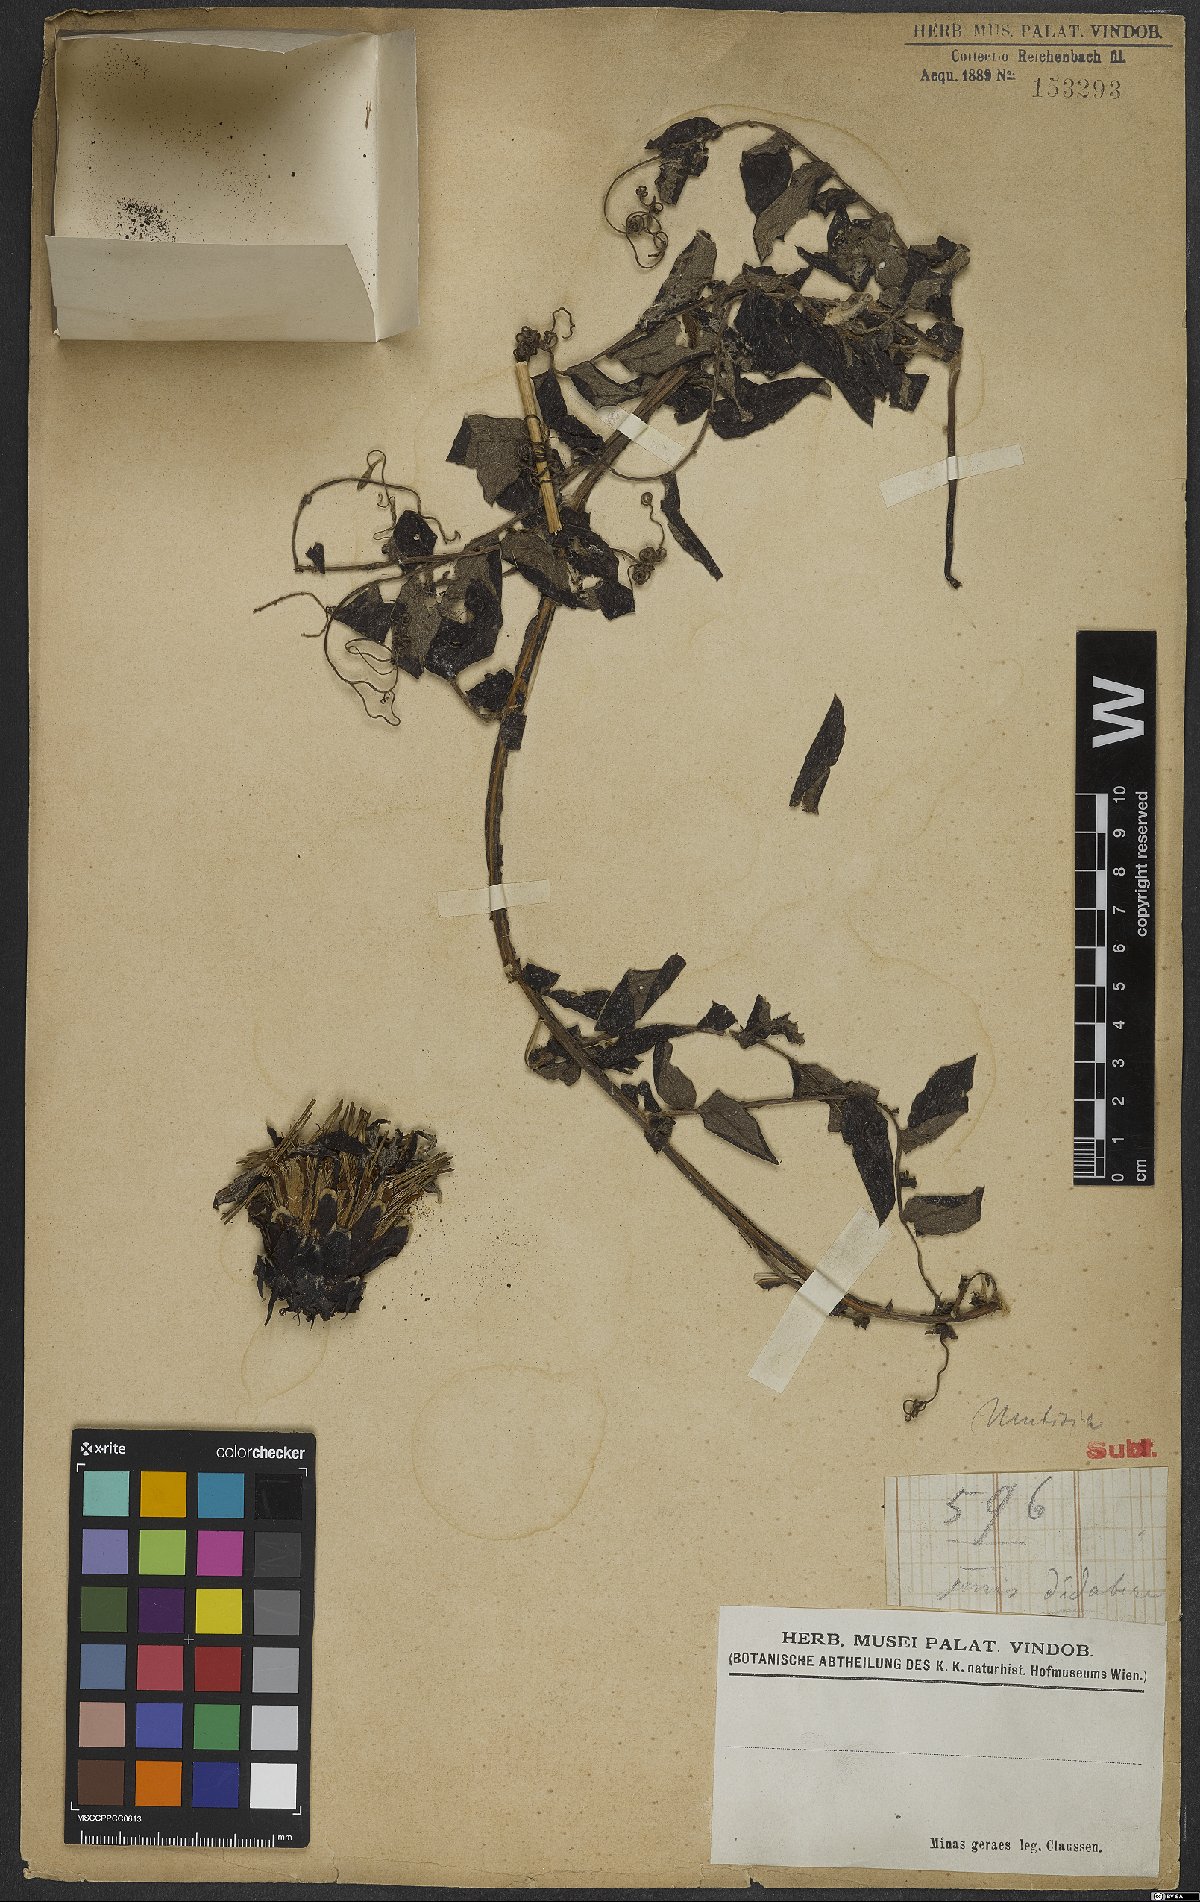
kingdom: Plantae
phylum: Tracheophyta
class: Magnoliopsida
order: Asterales
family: Asteraceae
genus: Mutisia
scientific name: Mutisia
